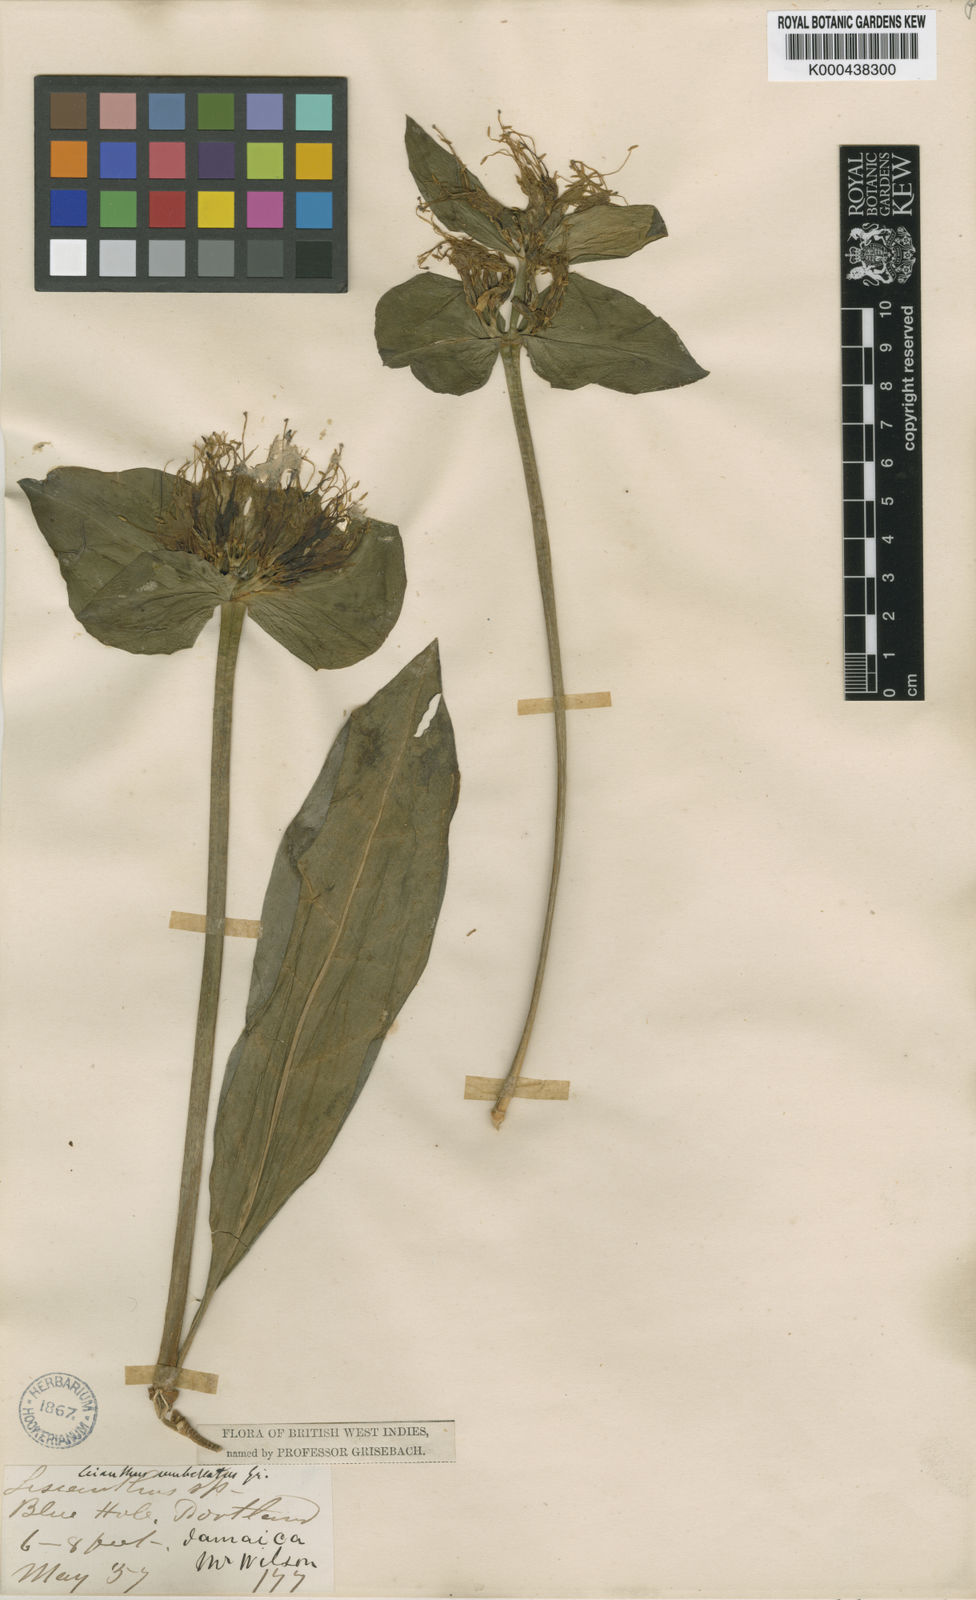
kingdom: Plantae
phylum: Tracheophyta
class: Magnoliopsida
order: Gentianales
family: Gentianaceae
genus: Lisianthus
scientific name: Lisianthus umbellatus
